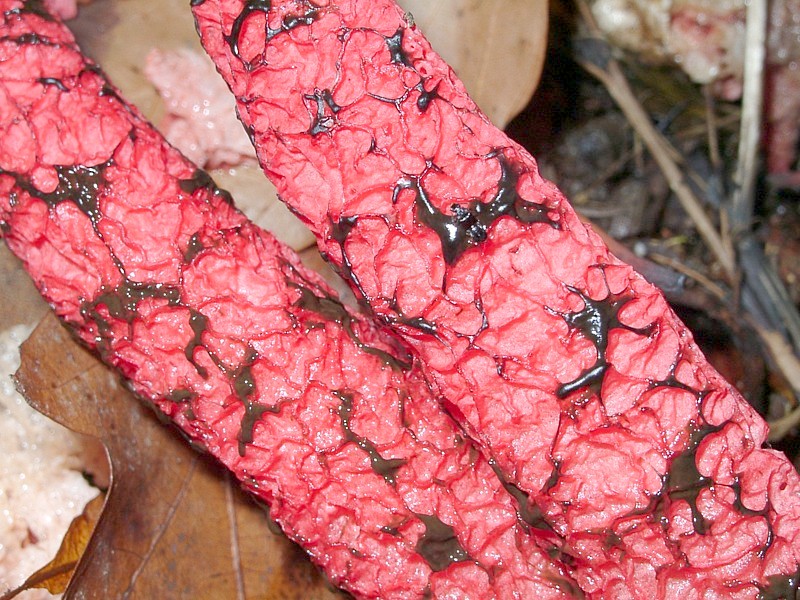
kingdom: Fungi
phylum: Basidiomycota
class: Agaricomycetes
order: Phallales
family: Phallaceae
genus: Clathrus
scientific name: Clathrus archeri
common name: Devil's fingers
